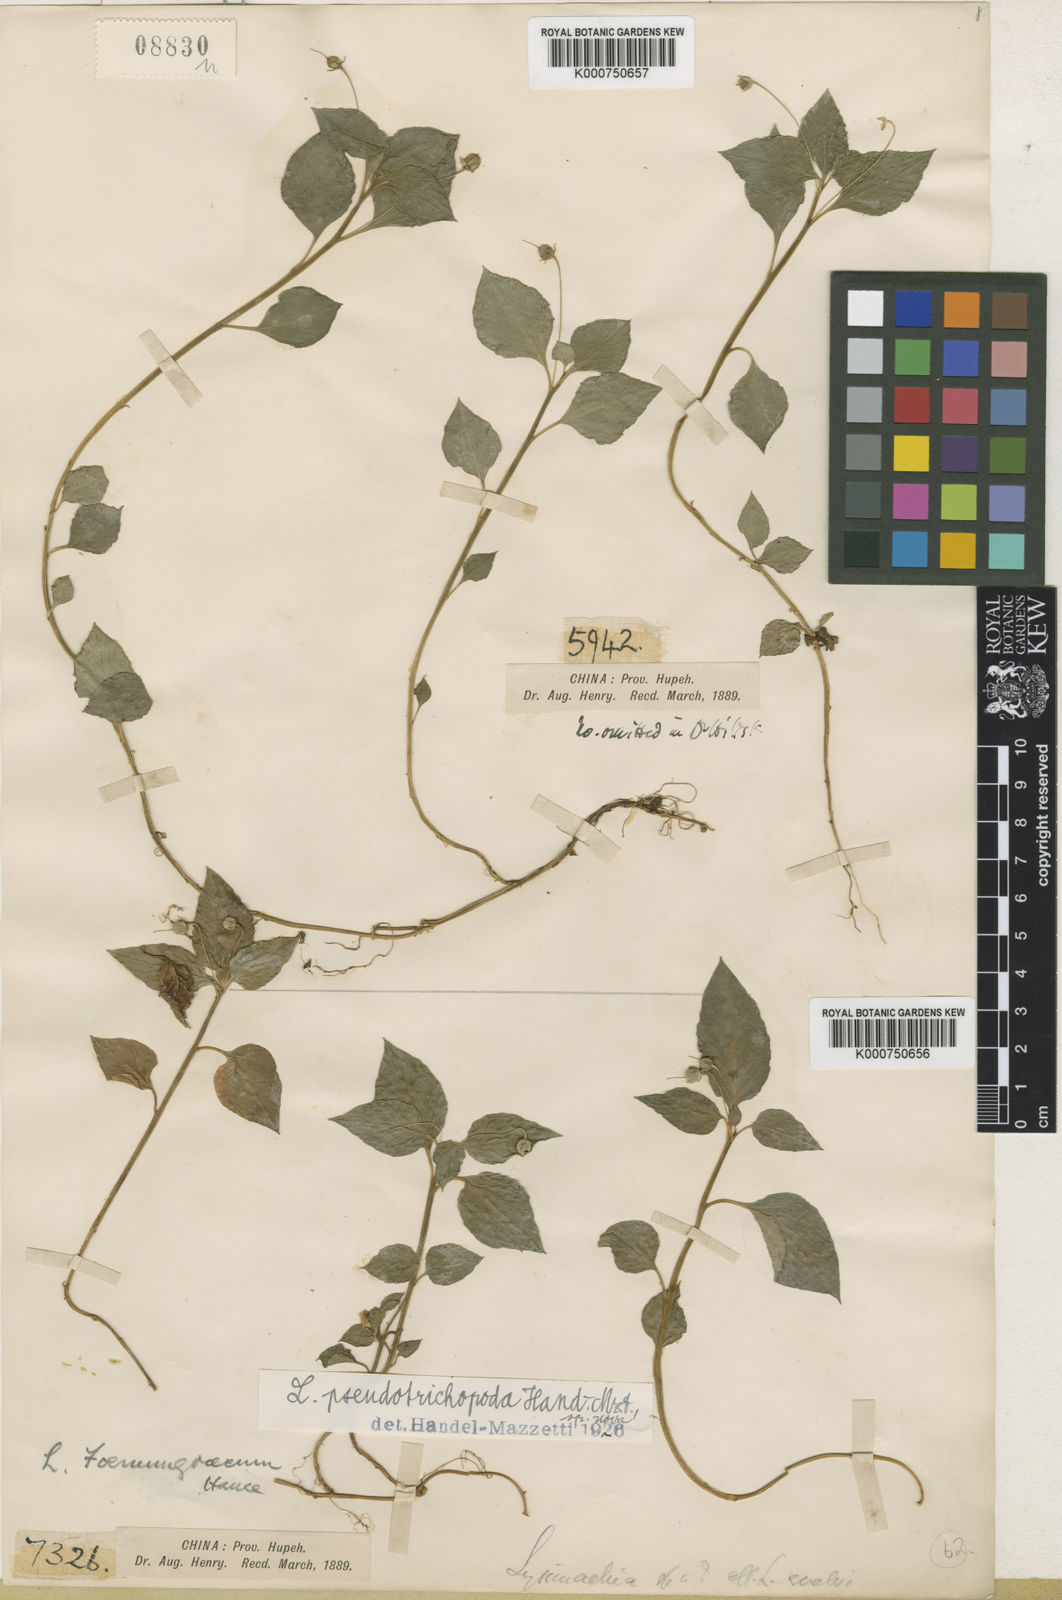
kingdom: Plantae
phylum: Tracheophyta
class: Magnoliopsida
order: Ericales
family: Primulaceae
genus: Lysimachia
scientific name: Lysimachia pseudotrichopoda
